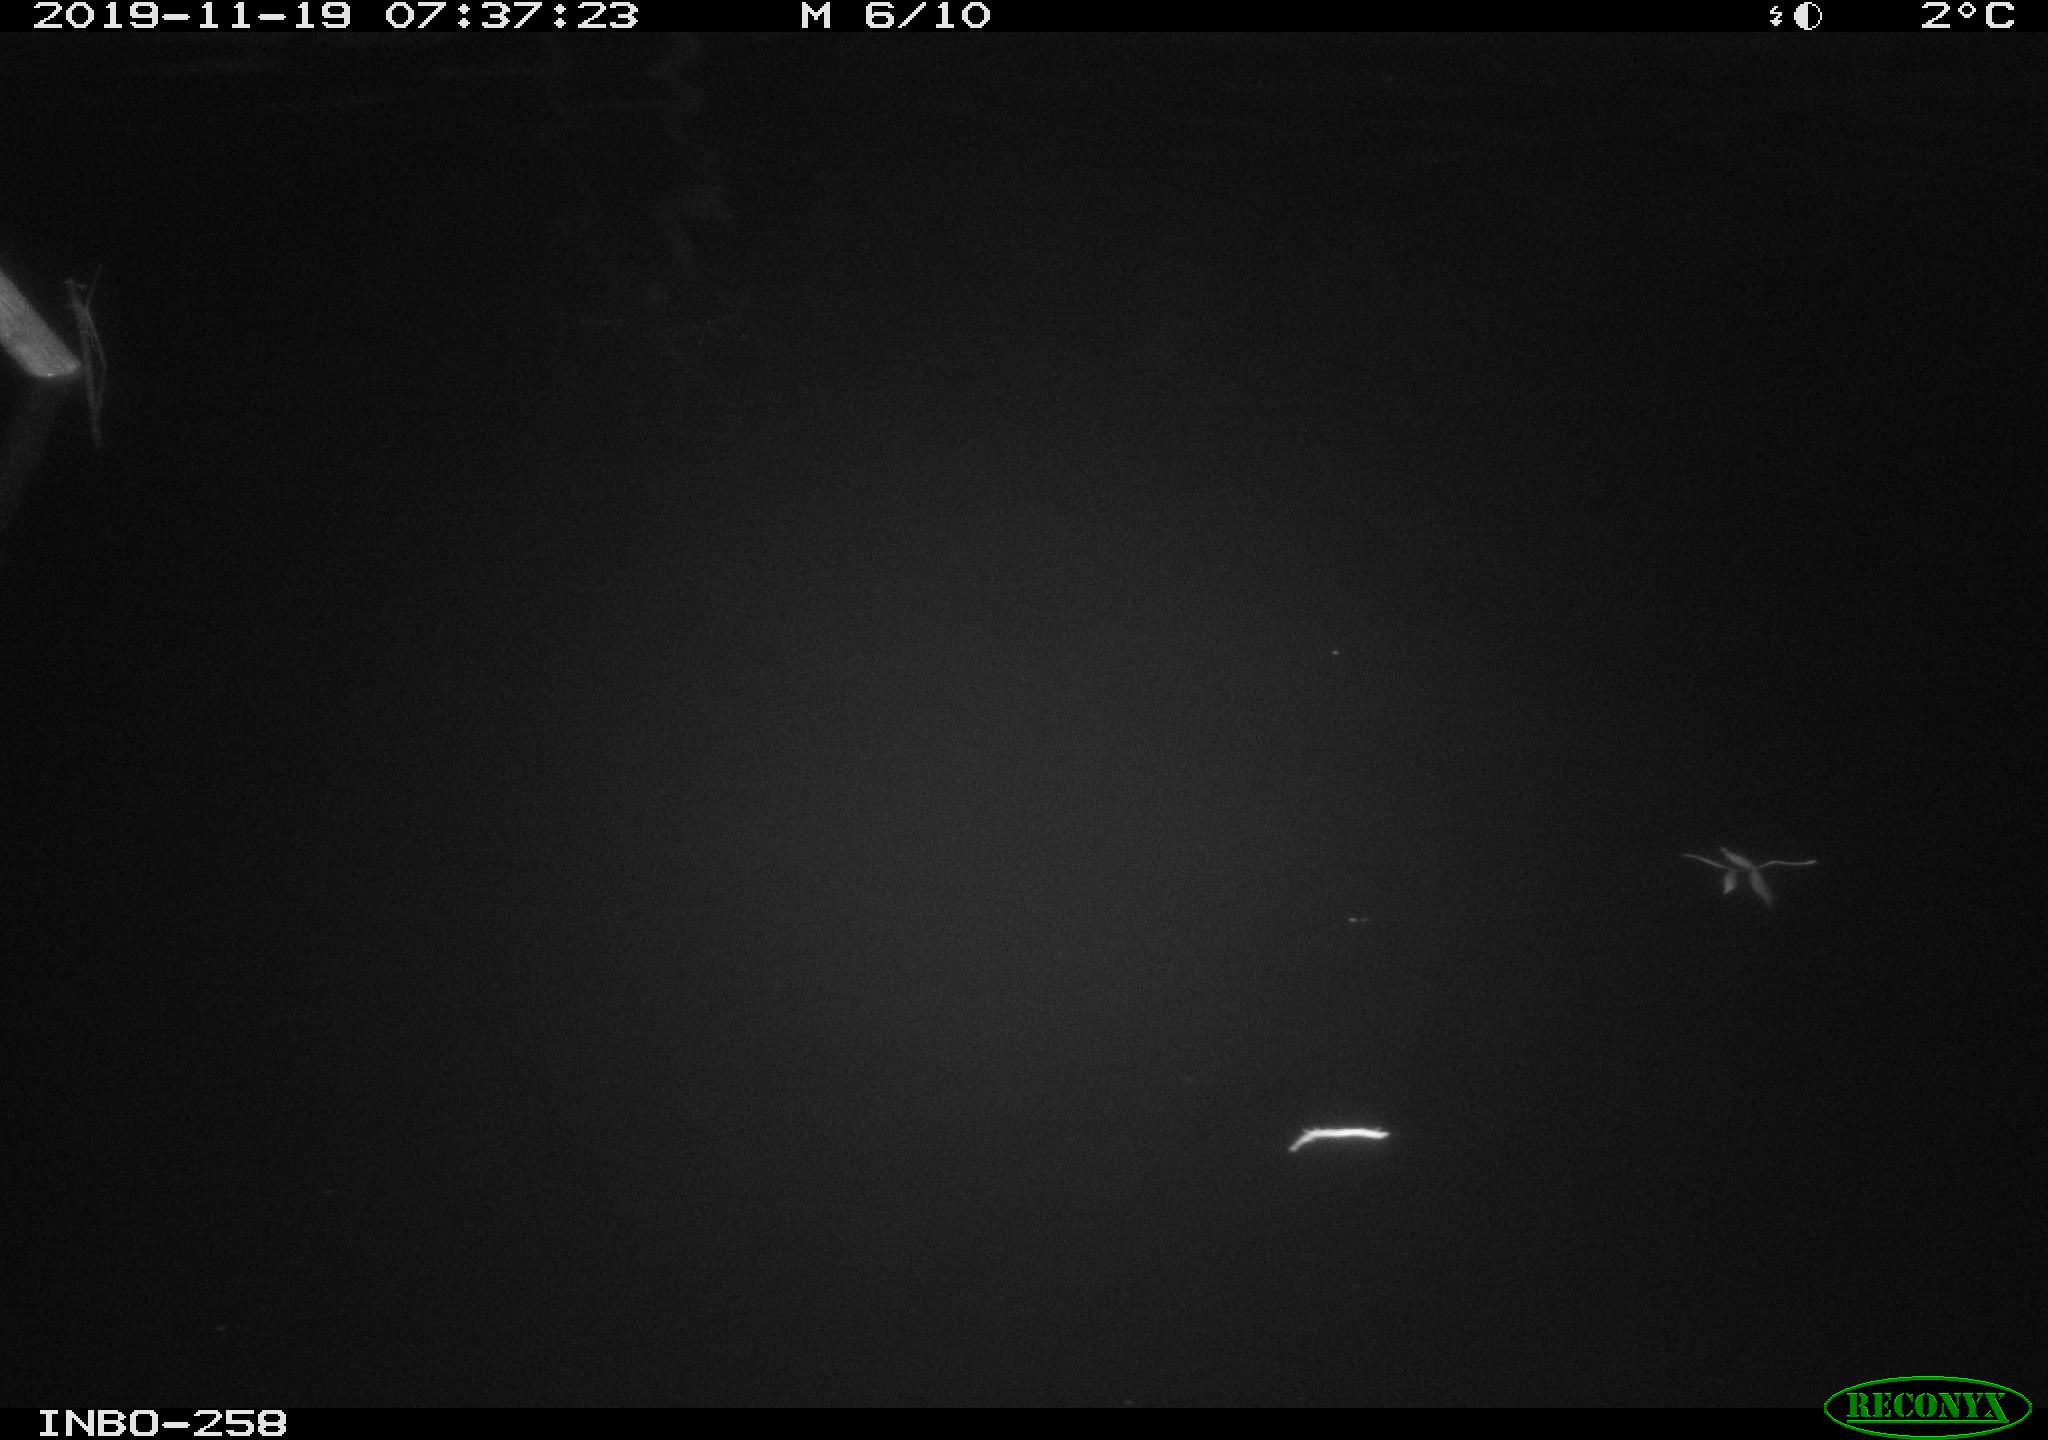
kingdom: Animalia
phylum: Chordata
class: Aves
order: Anseriformes
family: Anatidae
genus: Anas
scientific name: Anas platyrhynchos
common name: Mallard
